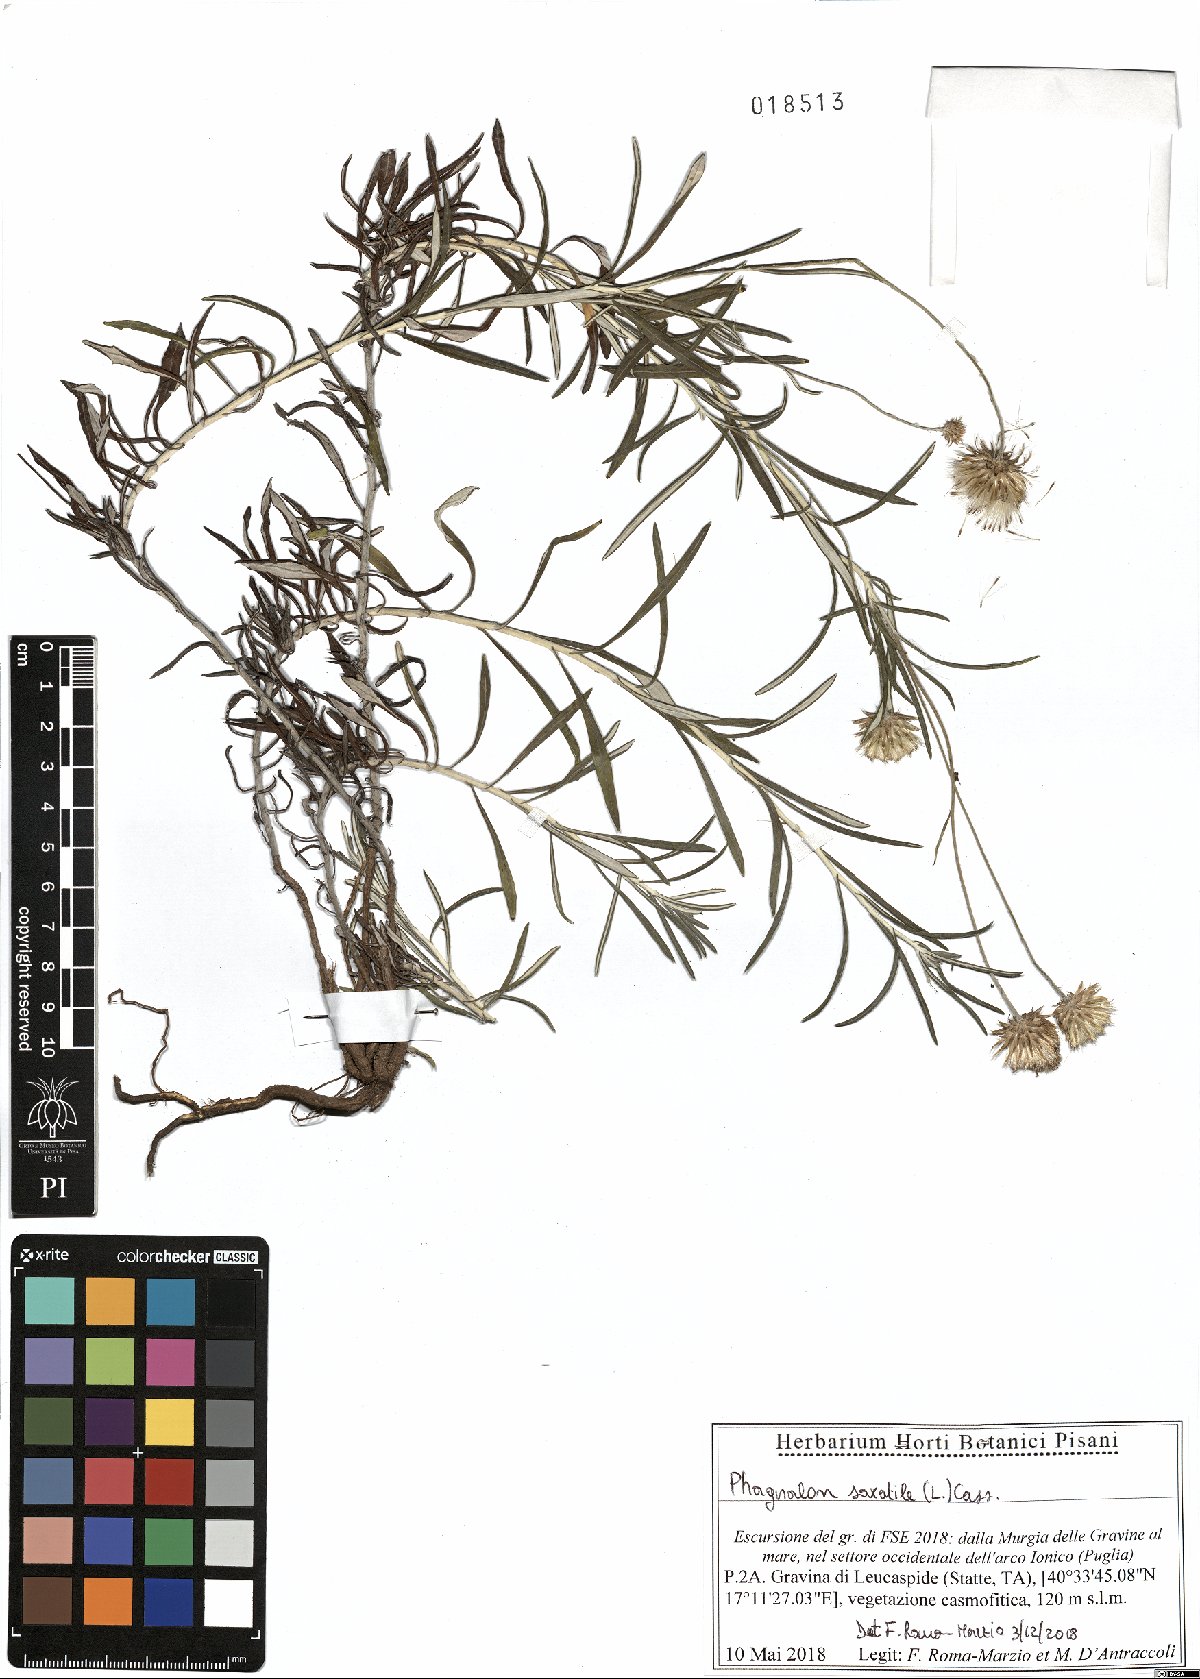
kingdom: Plantae
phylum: Tracheophyta
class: Magnoliopsida
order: Asterales
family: Asteraceae
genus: Phagnalon
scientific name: Phagnalon saxatile
